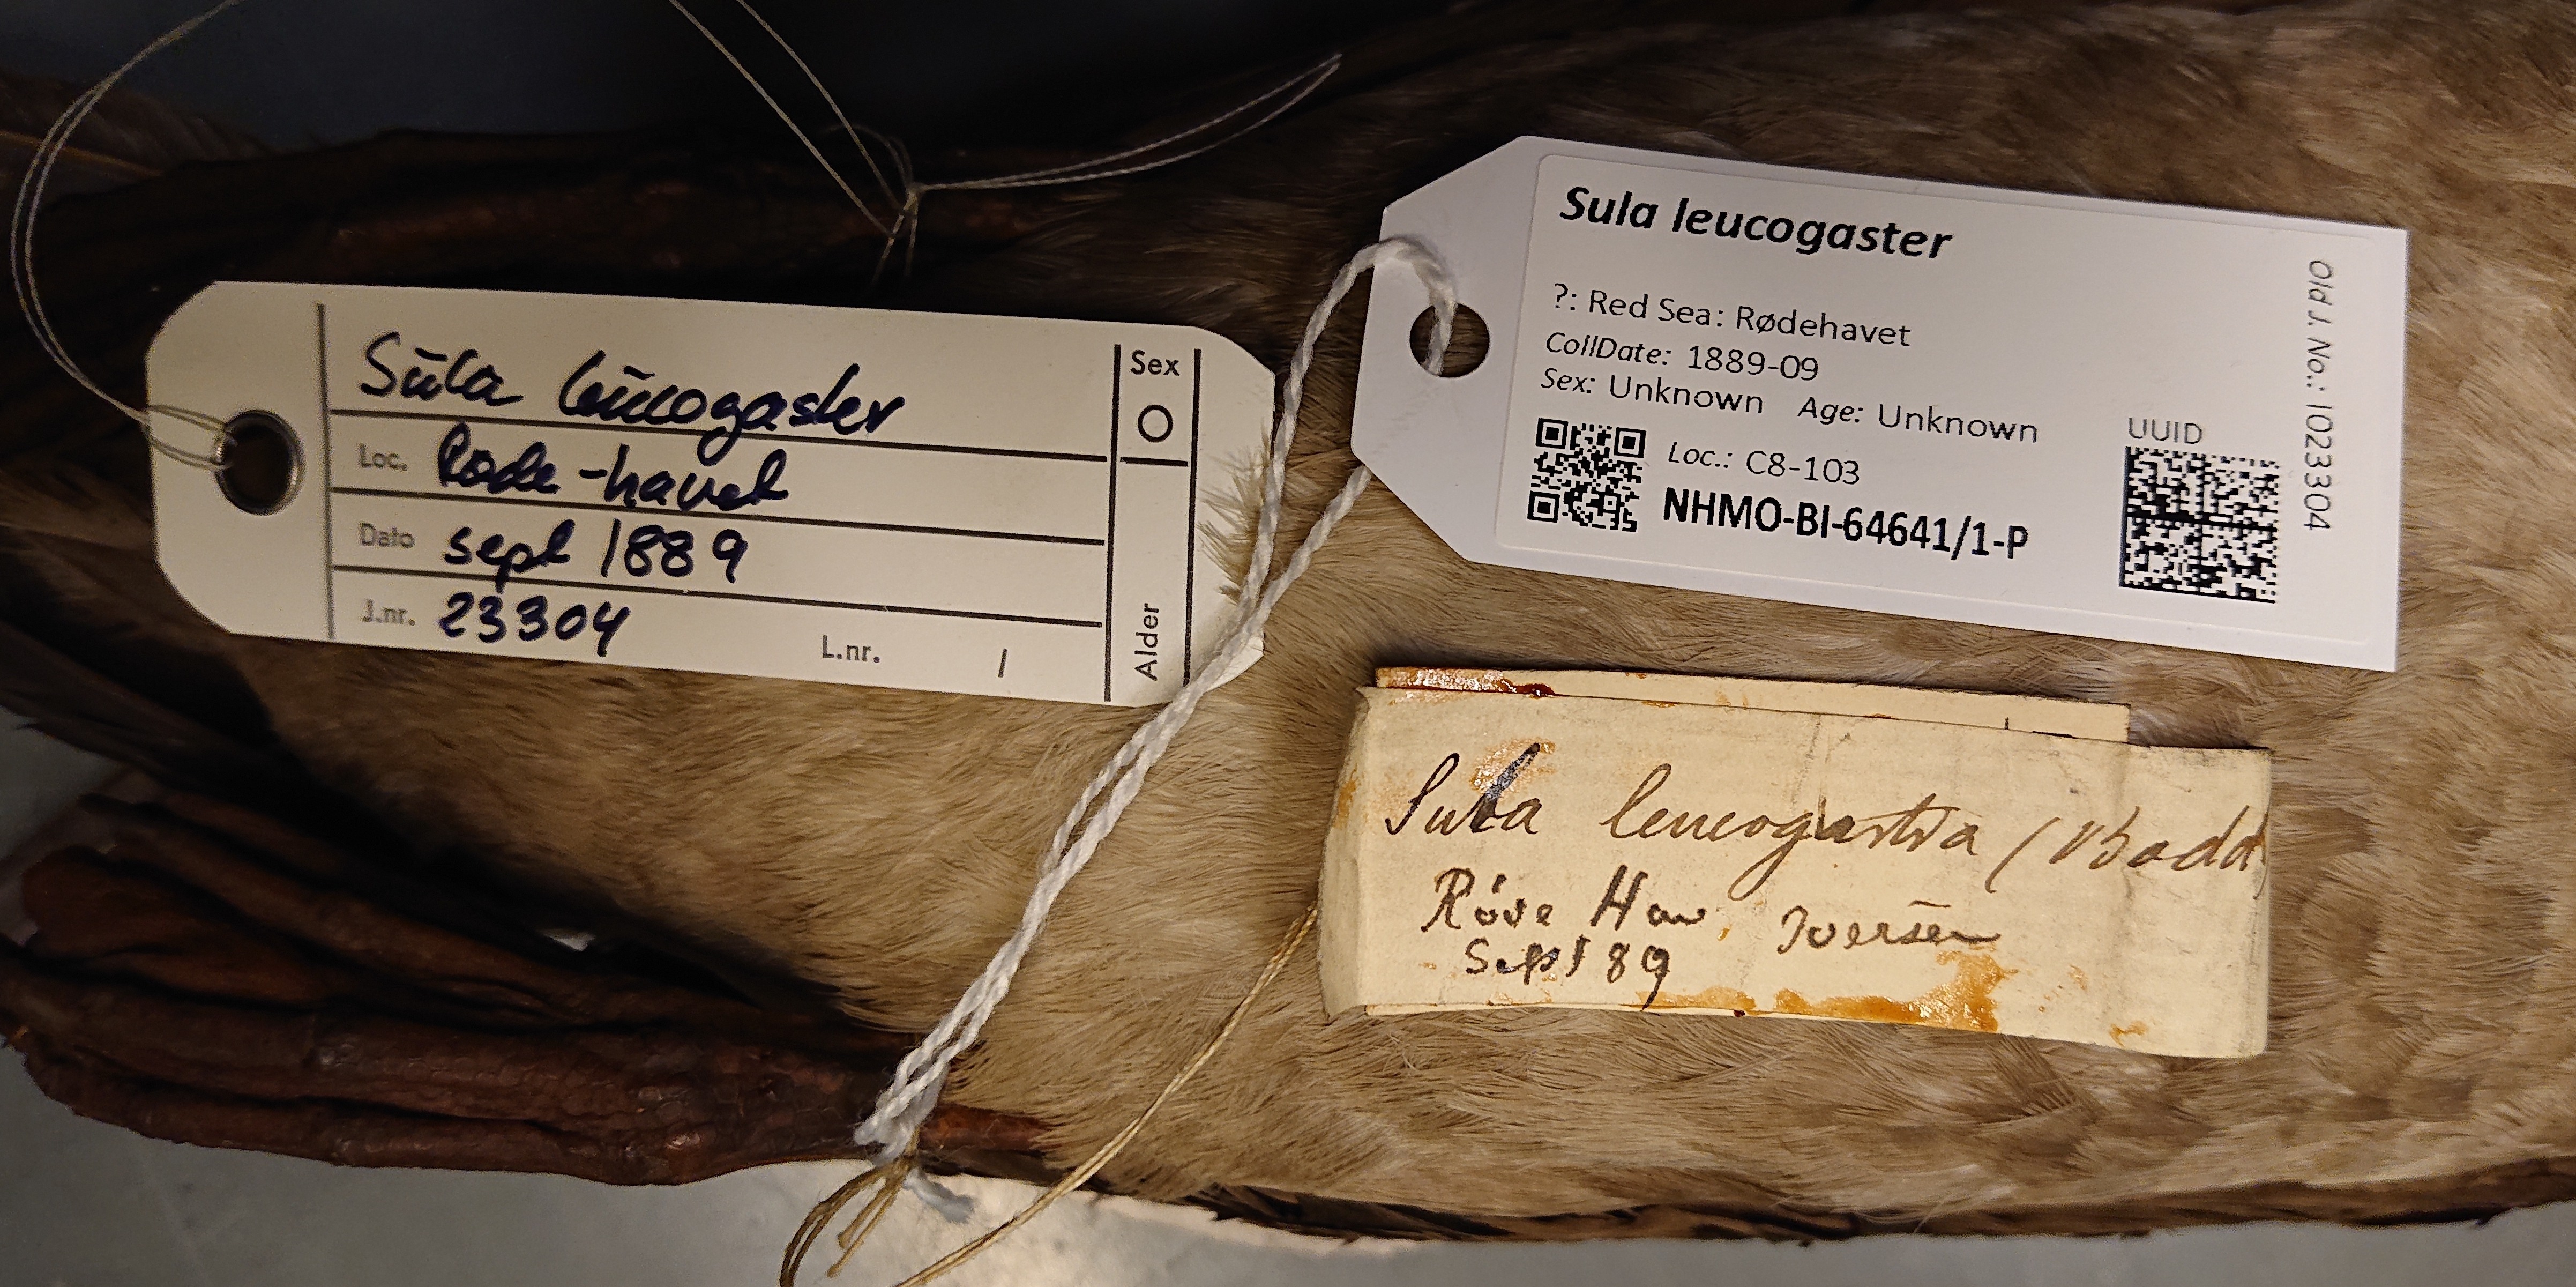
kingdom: Animalia
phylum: Chordata
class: Aves
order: Suliformes
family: Sulidae
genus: Sula
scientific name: Sula leucogaster
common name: Brown booby
